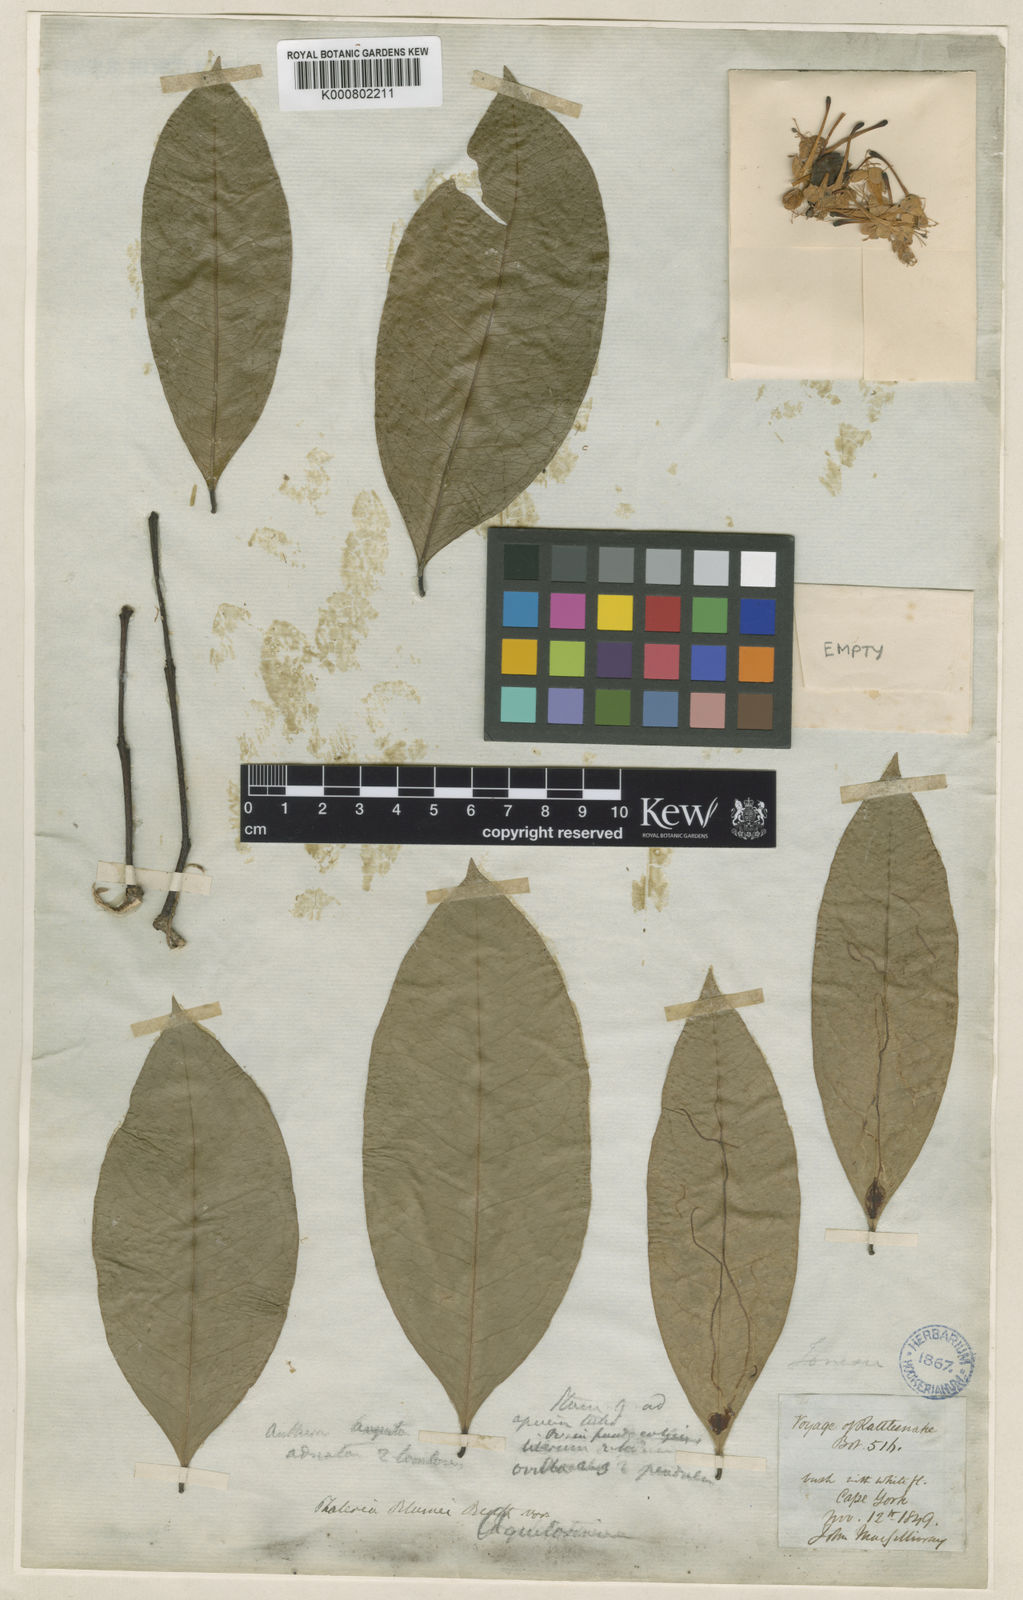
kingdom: Plantae
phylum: Tracheophyta
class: Magnoliopsida
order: Malvales
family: Thymelaeaceae
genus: Phaleria
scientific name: Phaleria
